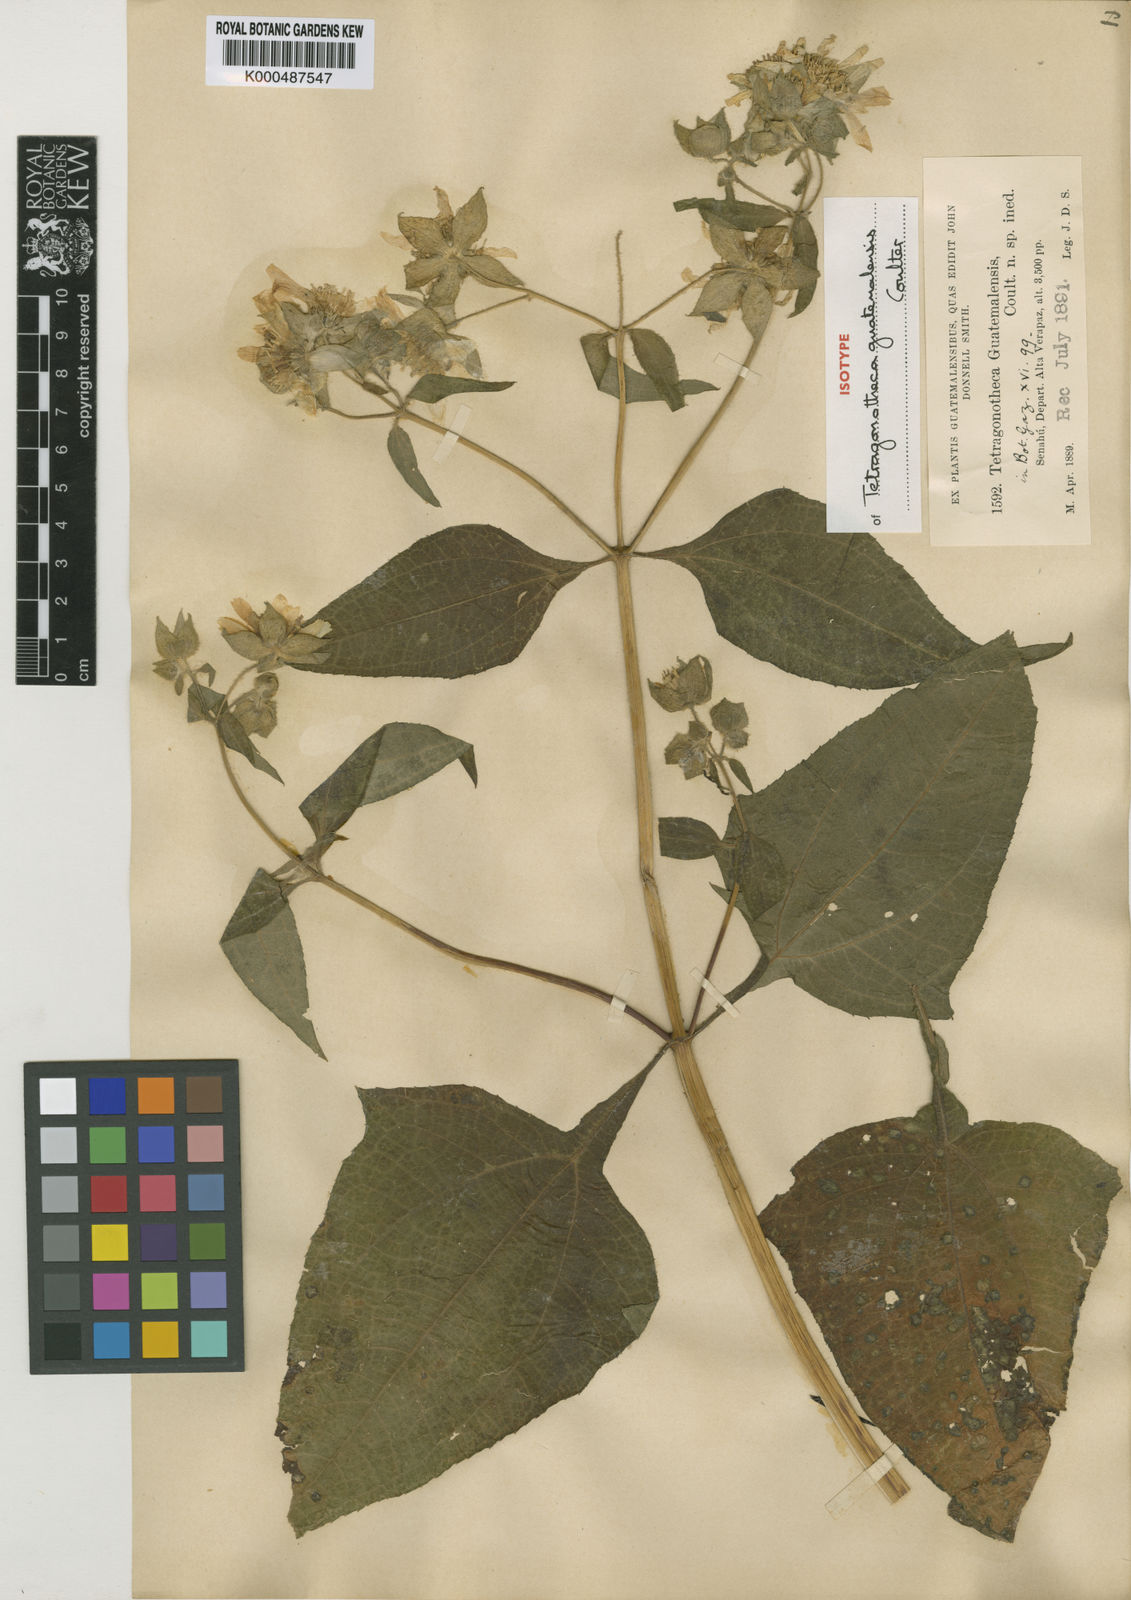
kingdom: Plantae
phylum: Tracheophyta
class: Magnoliopsida
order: Asterales
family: Asteraceae
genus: Rumfordia
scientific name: Rumfordia guatemalensis
